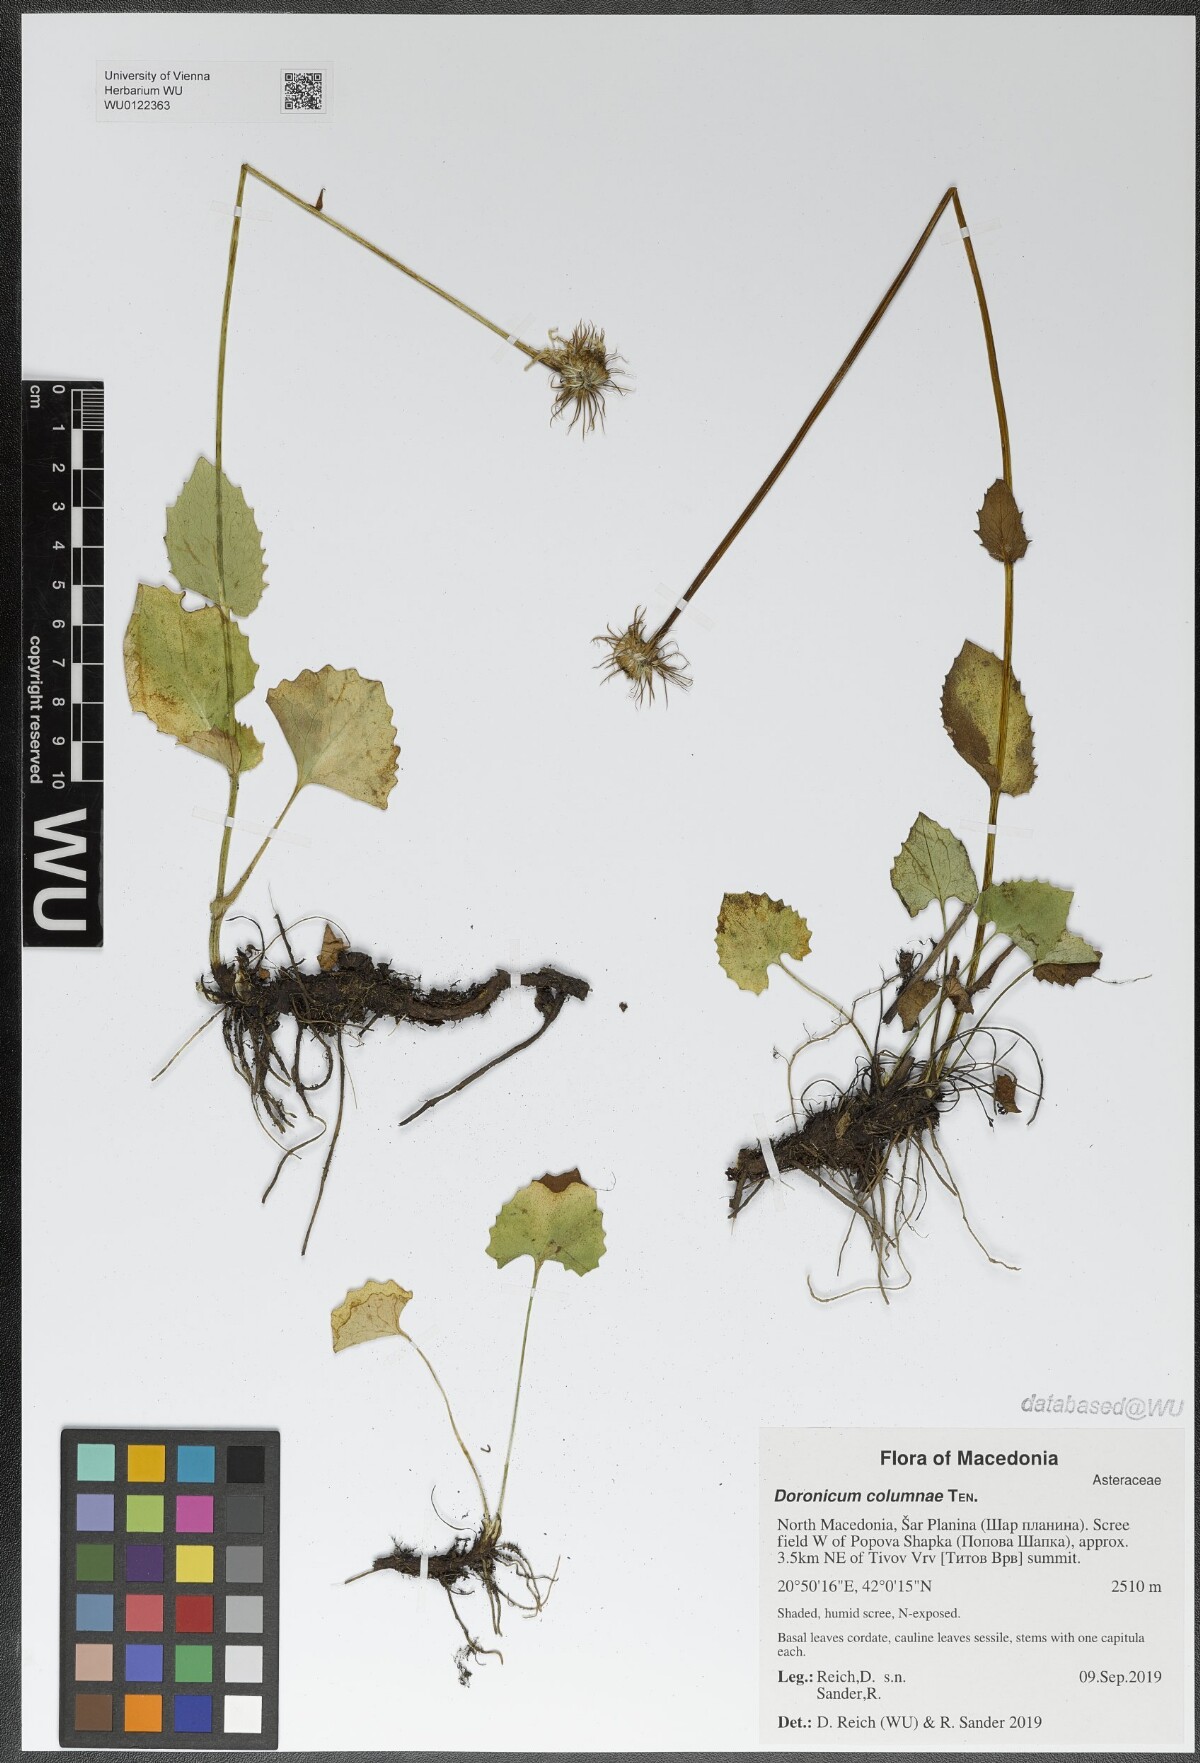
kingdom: Plantae
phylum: Tracheophyta
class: Magnoliopsida
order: Asterales
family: Asteraceae
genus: Doronicum
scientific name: Doronicum columnae
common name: Eastern leopard's-bane
